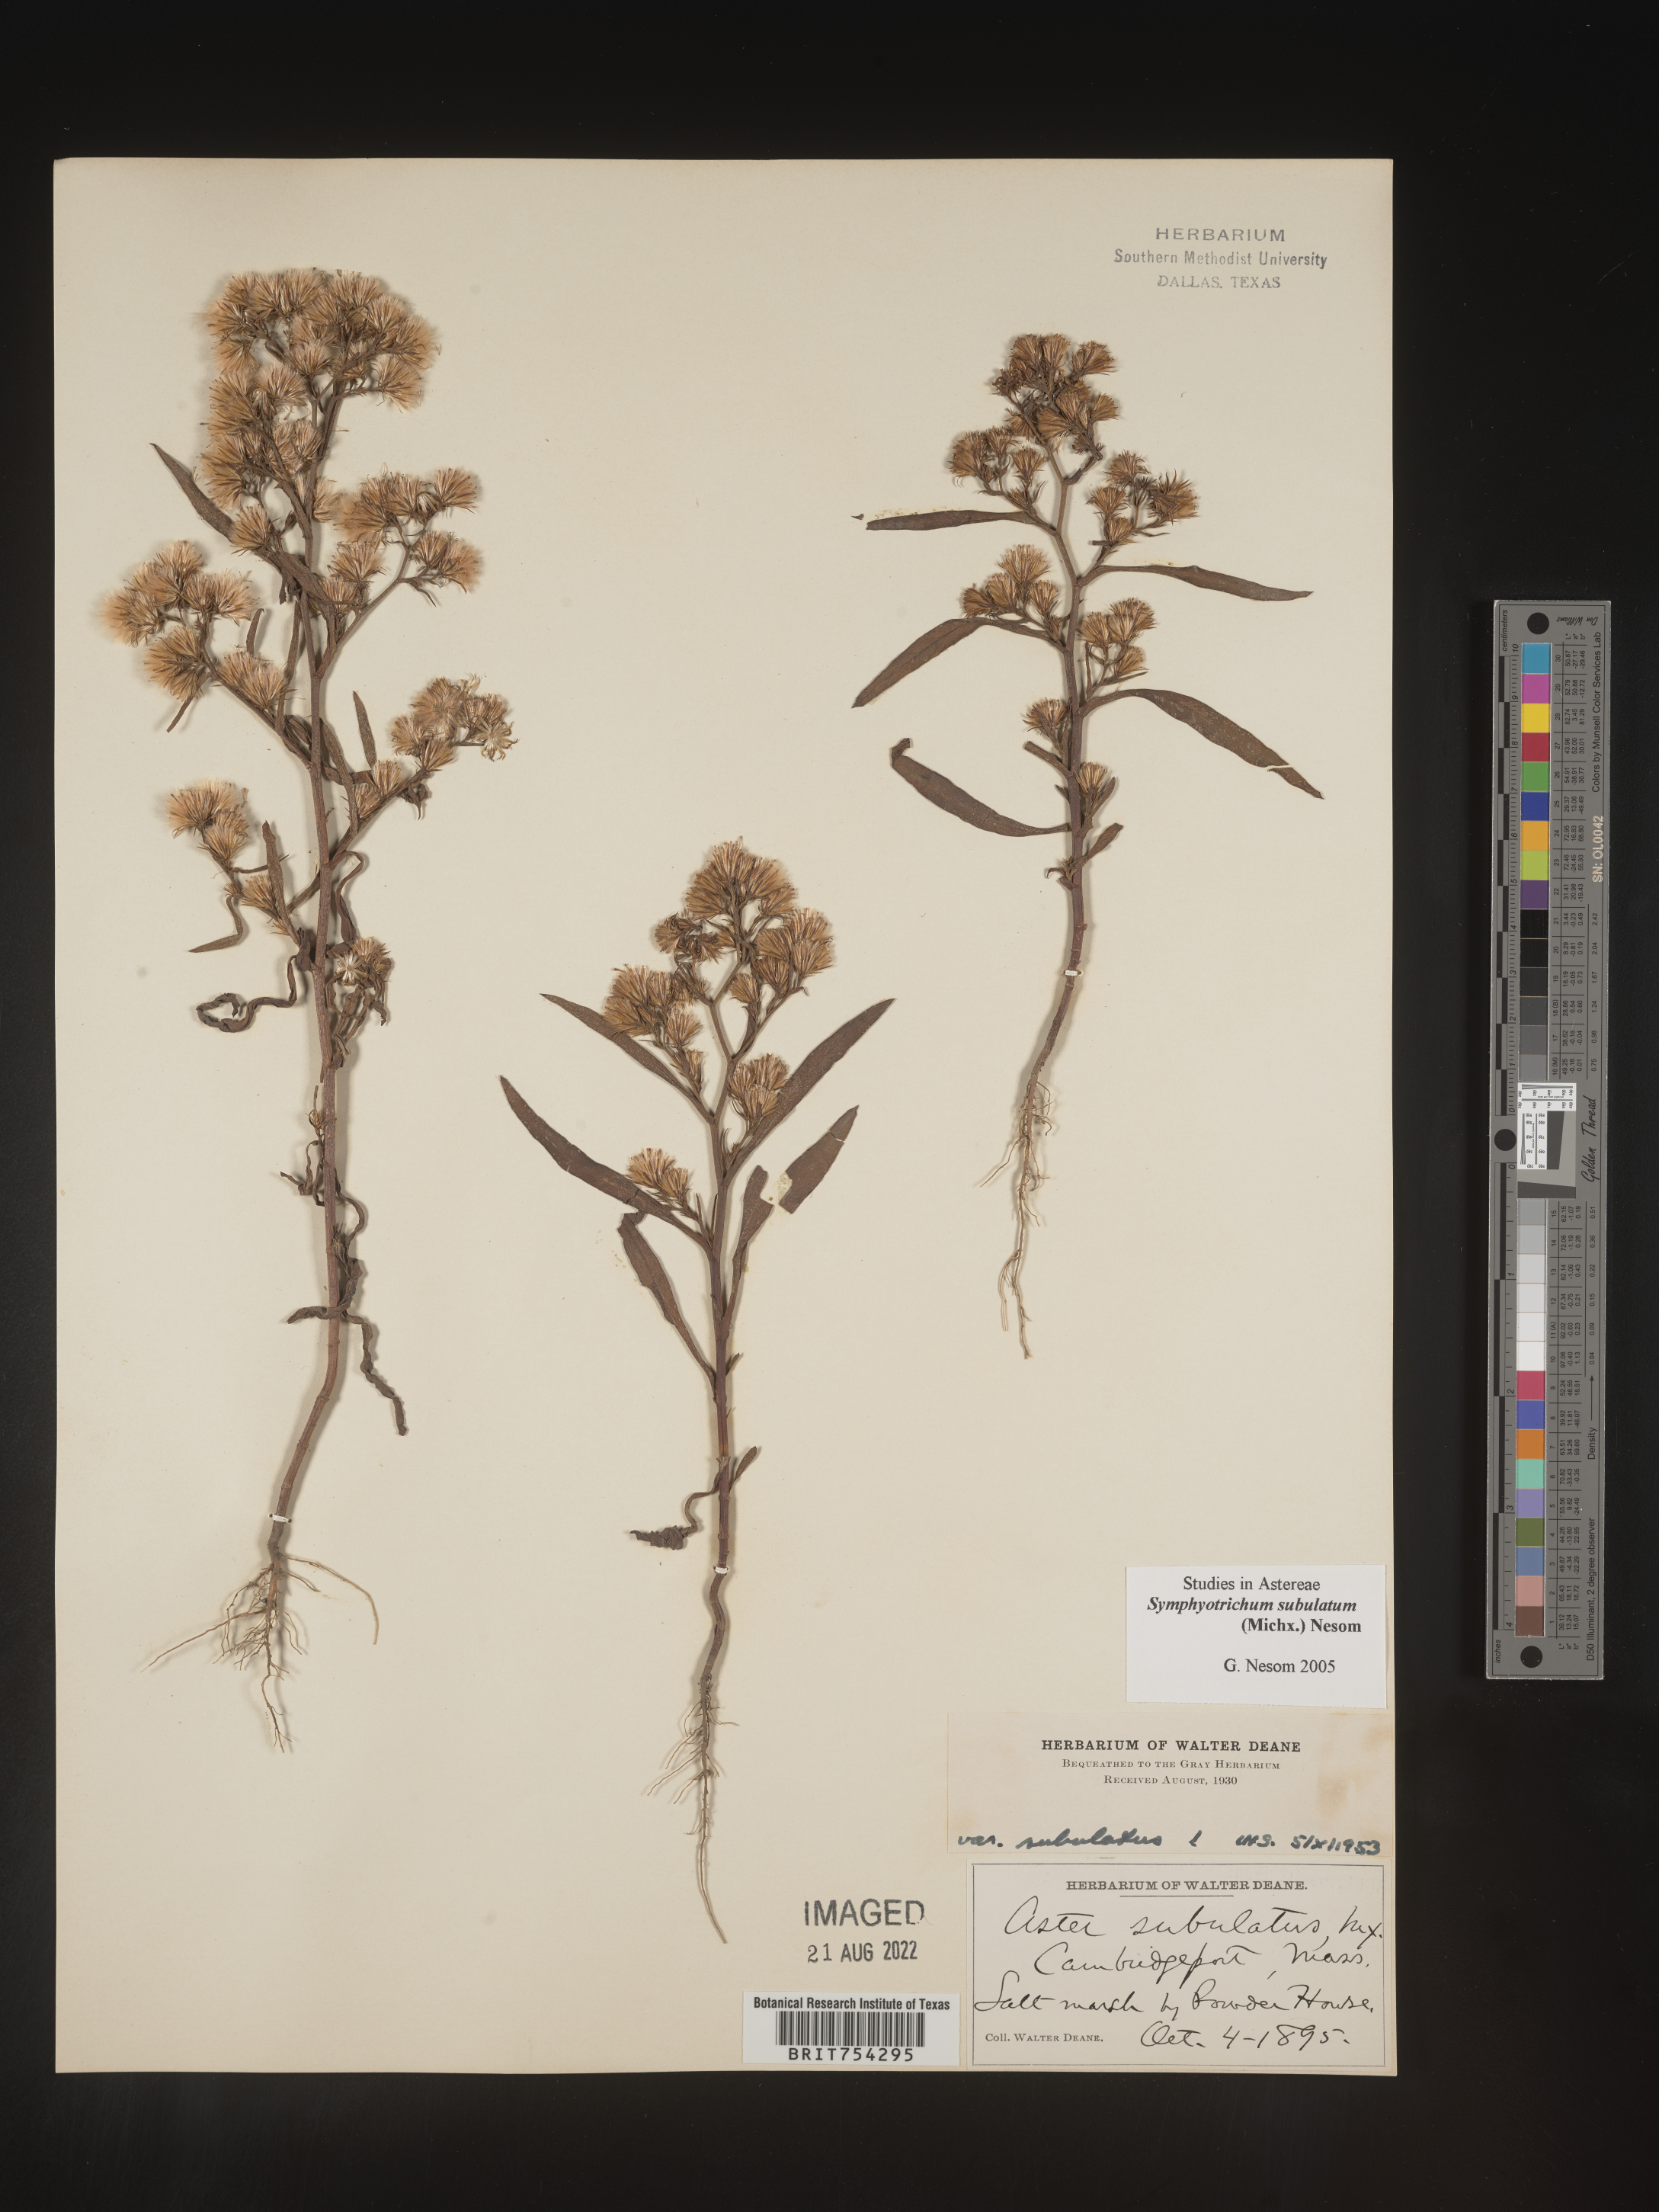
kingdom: Plantae
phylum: Tracheophyta
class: Magnoliopsida
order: Asterales
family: Asteraceae
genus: Symphyotrichum
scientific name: Symphyotrichum subulatum
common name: Annual saltmarsh aster
